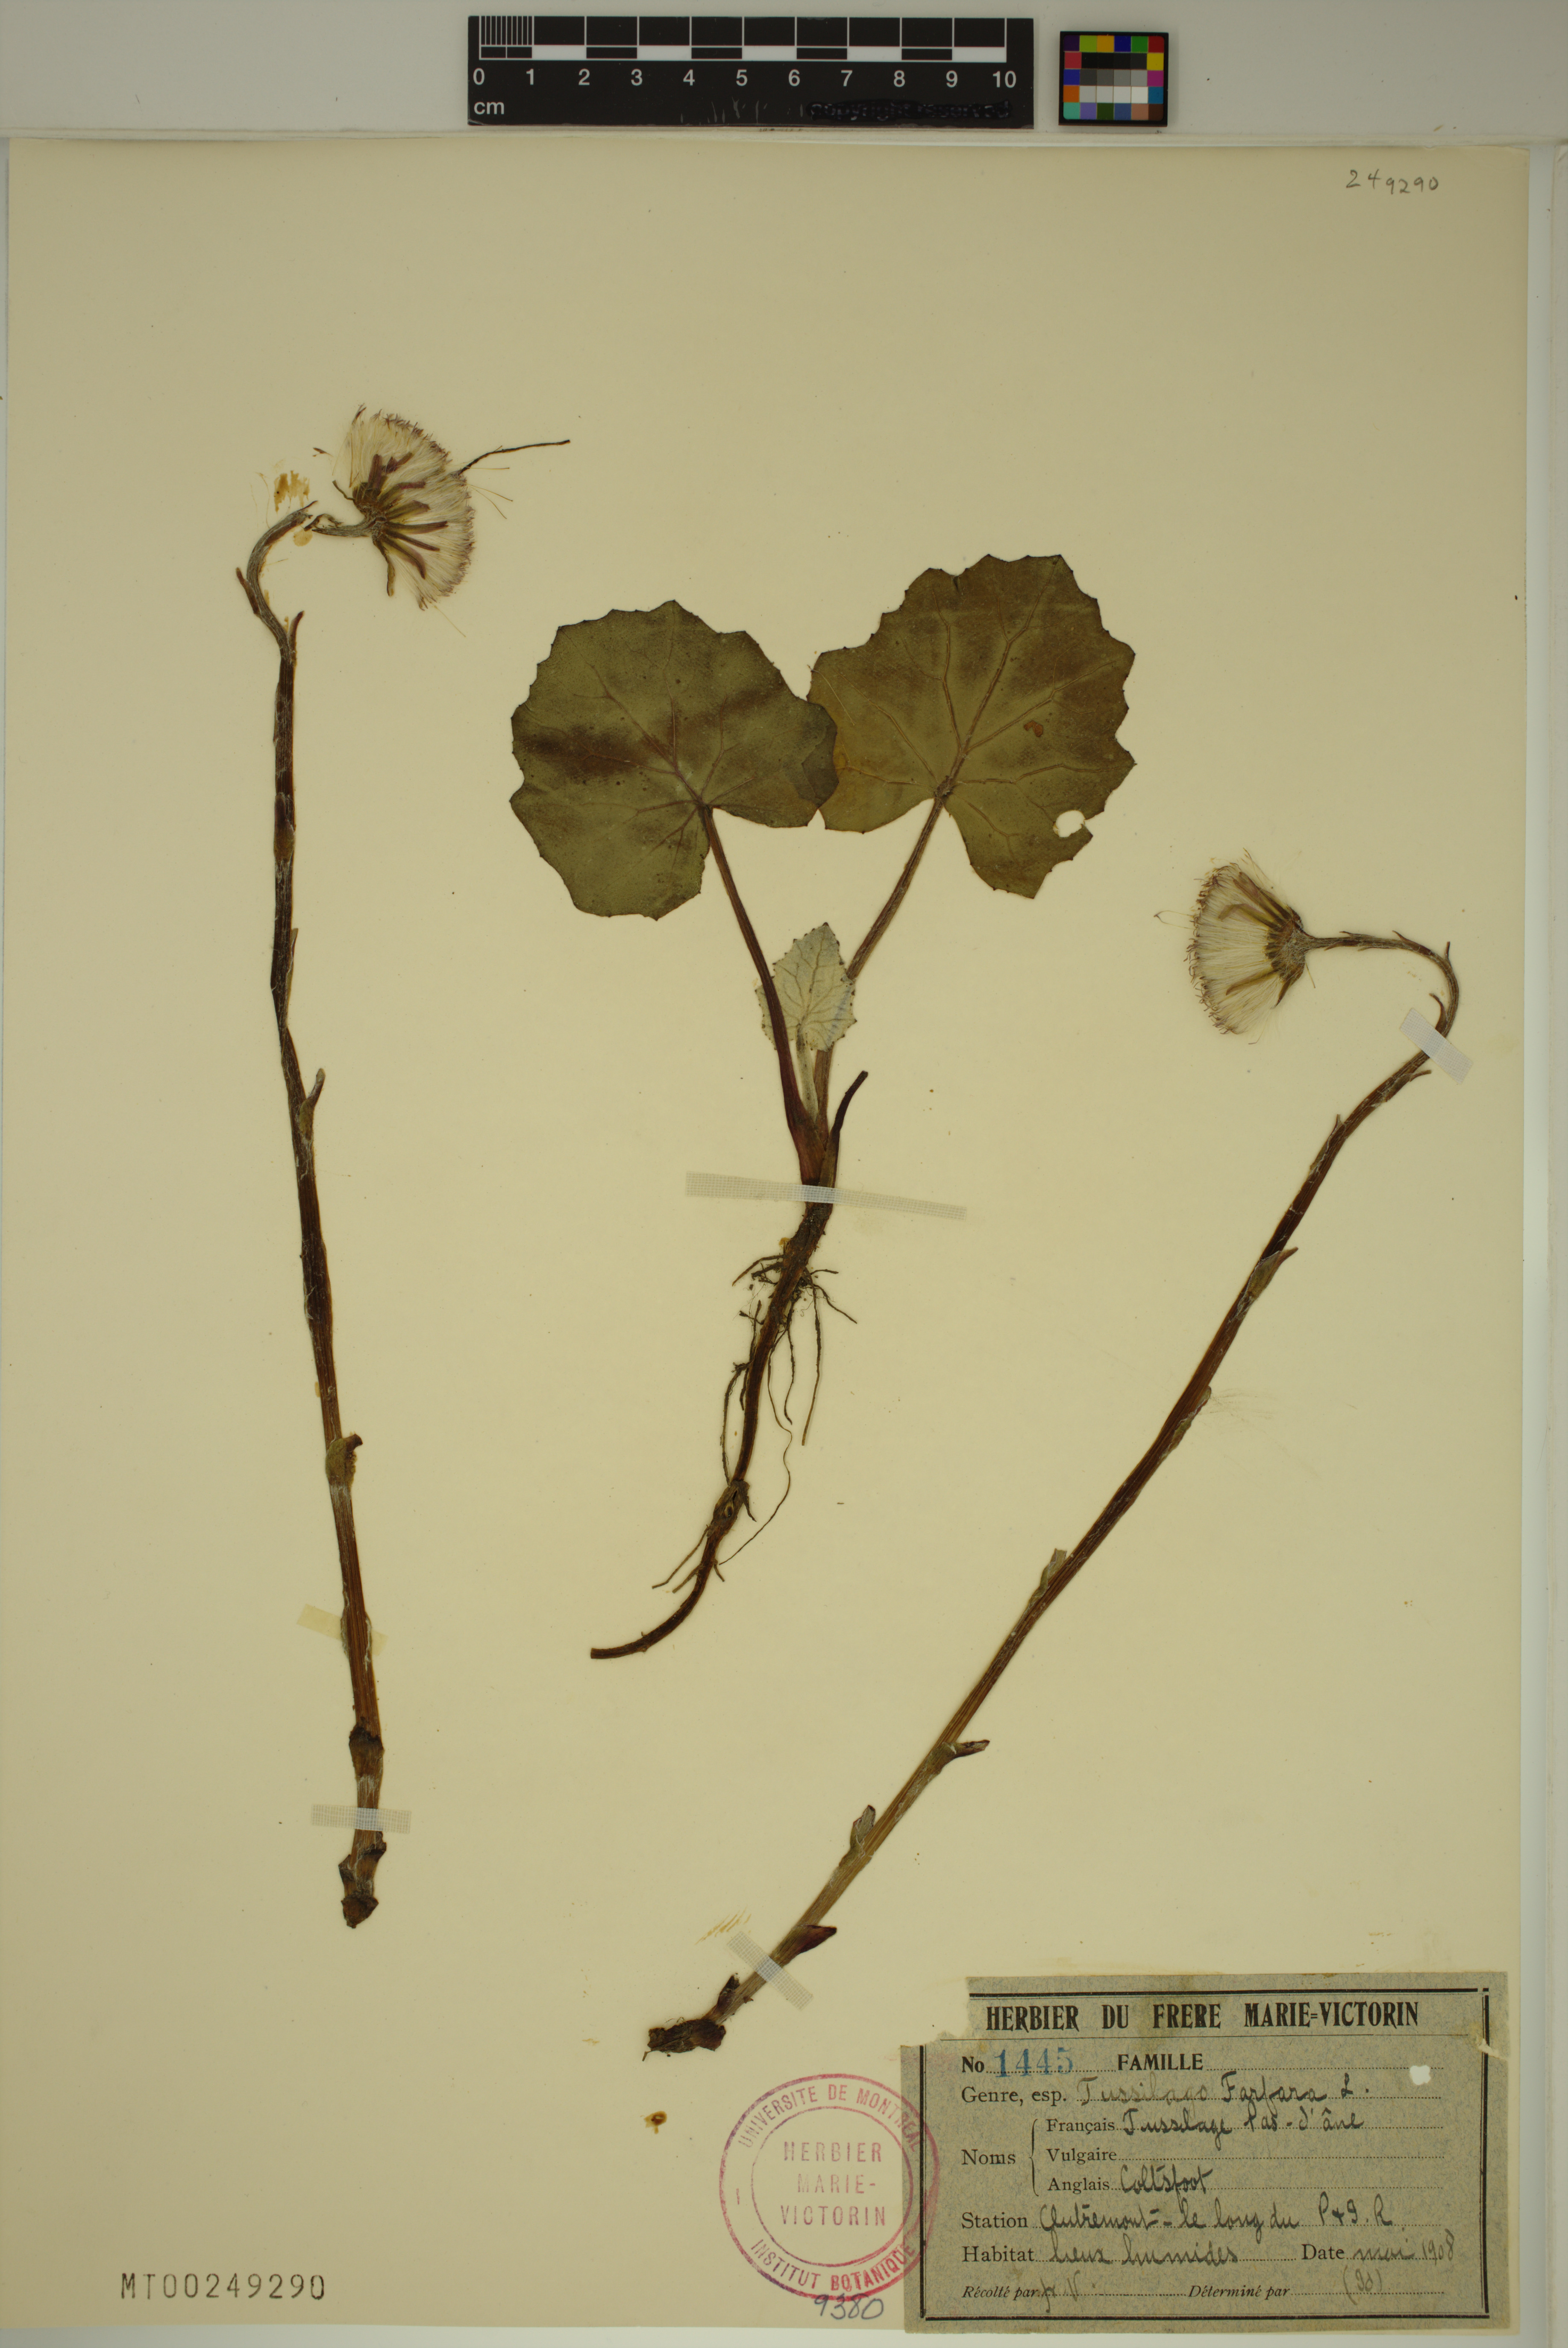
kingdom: Plantae
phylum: Tracheophyta
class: Magnoliopsida
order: Asterales
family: Asteraceae
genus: Tussilago
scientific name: Tussilago farfara
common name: Coltsfoot
